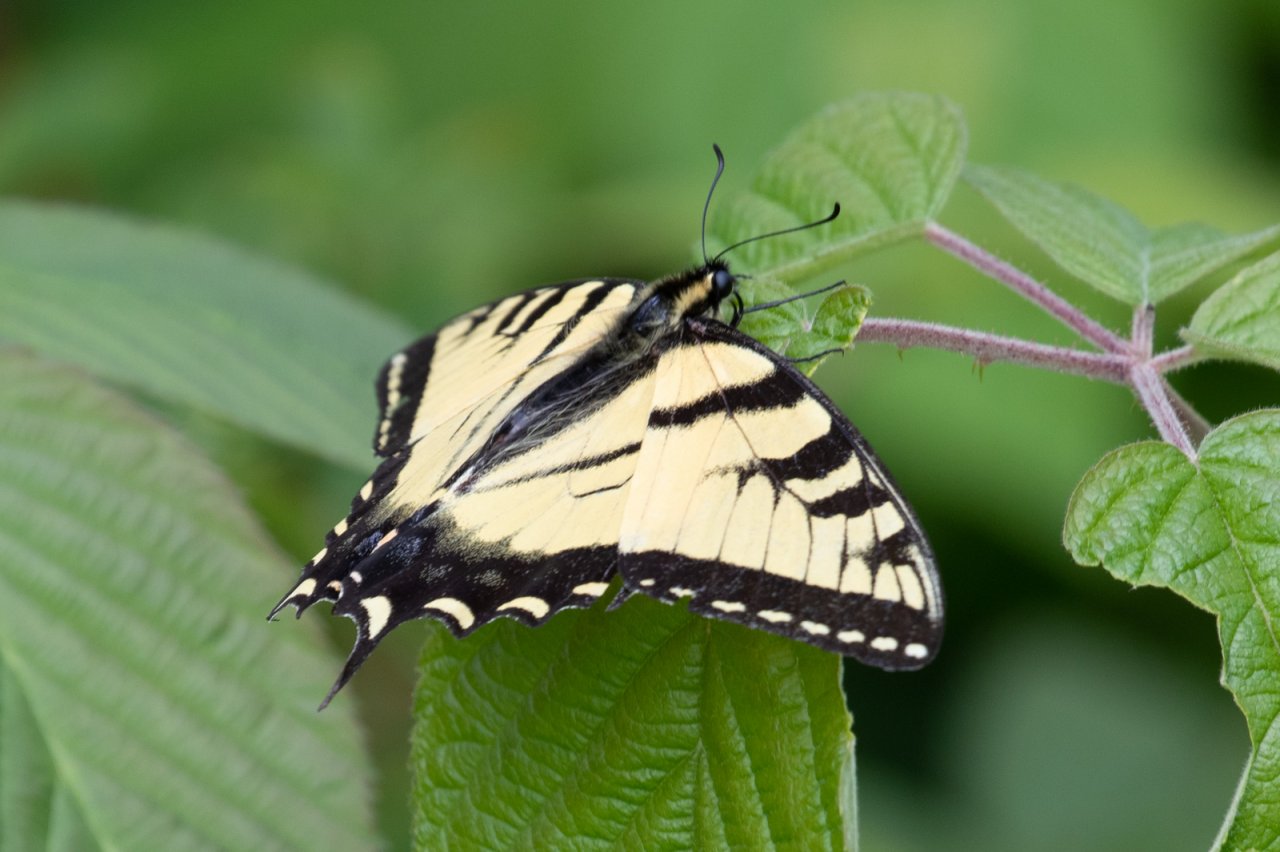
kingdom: Animalia
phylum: Arthropoda
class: Insecta
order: Lepidoptera
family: Papilionidae
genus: Pterourus
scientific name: Pterourus canadensis
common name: Canadian Tiger Swallowtail
